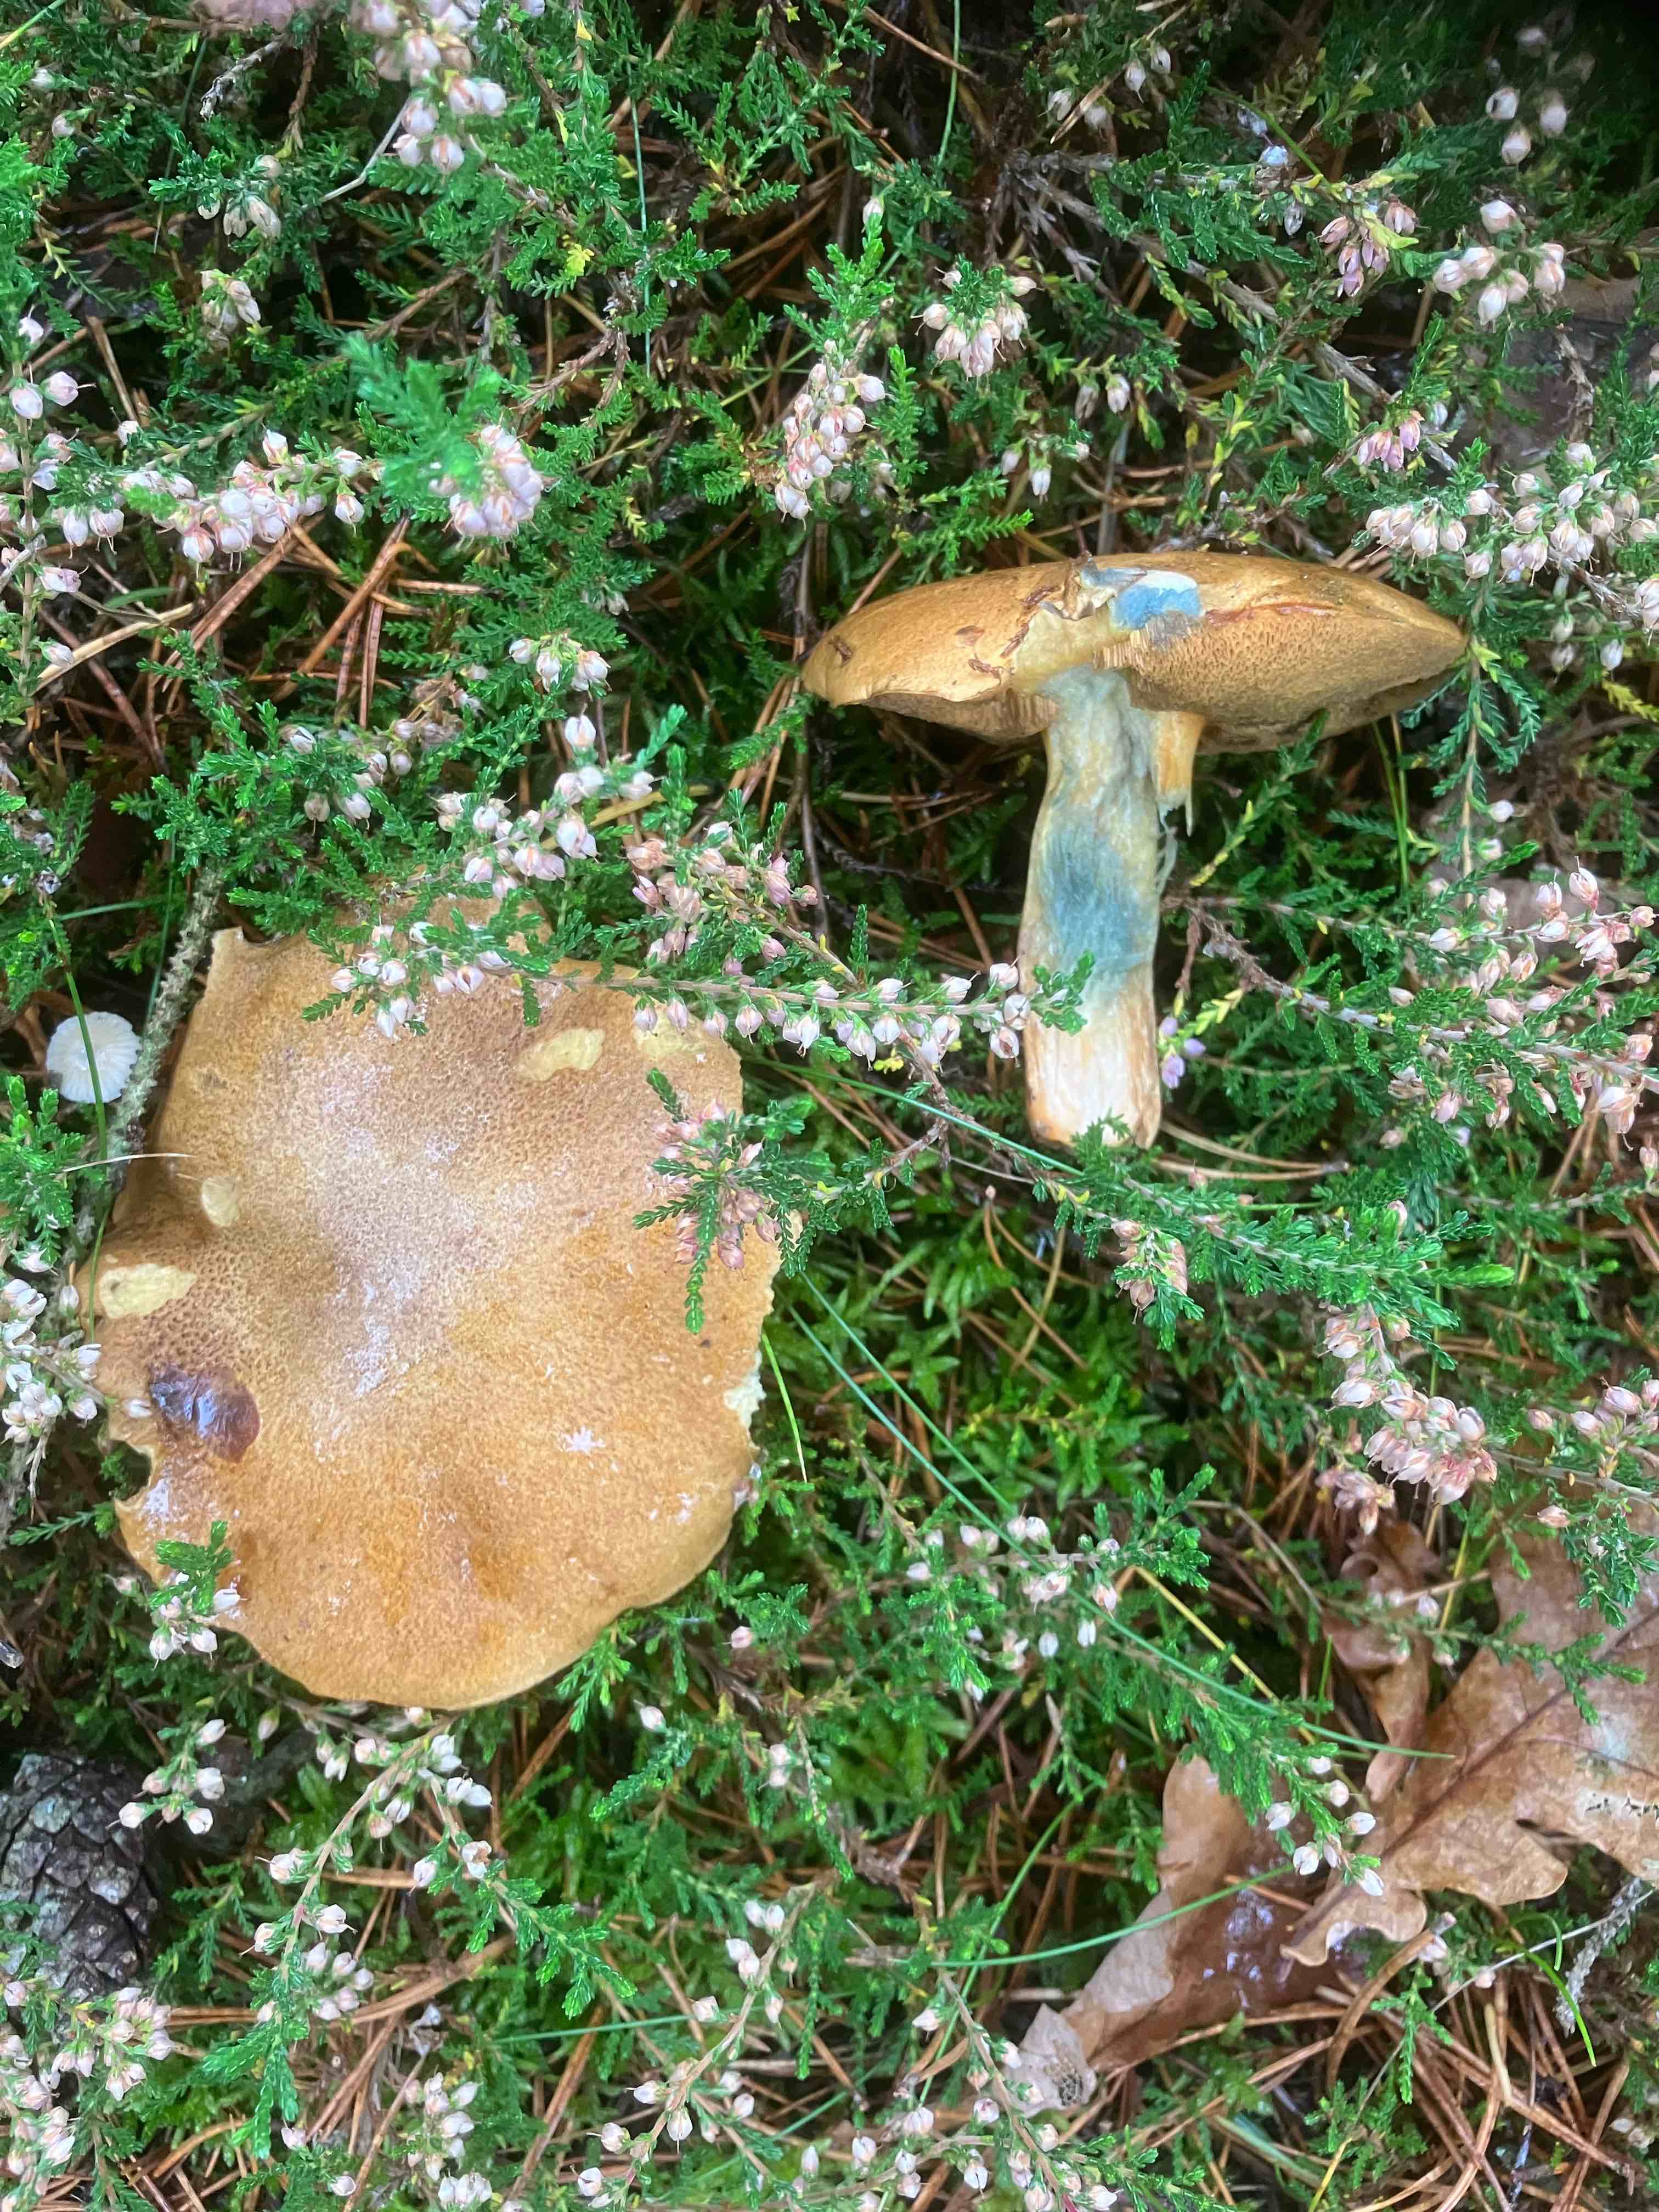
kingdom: Fungi
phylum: Basidiomycota
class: Agaricomycetes
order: Boletales
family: Suillaceae
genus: Suillus
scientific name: Suillus variegatus
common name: broget slimrørhat
